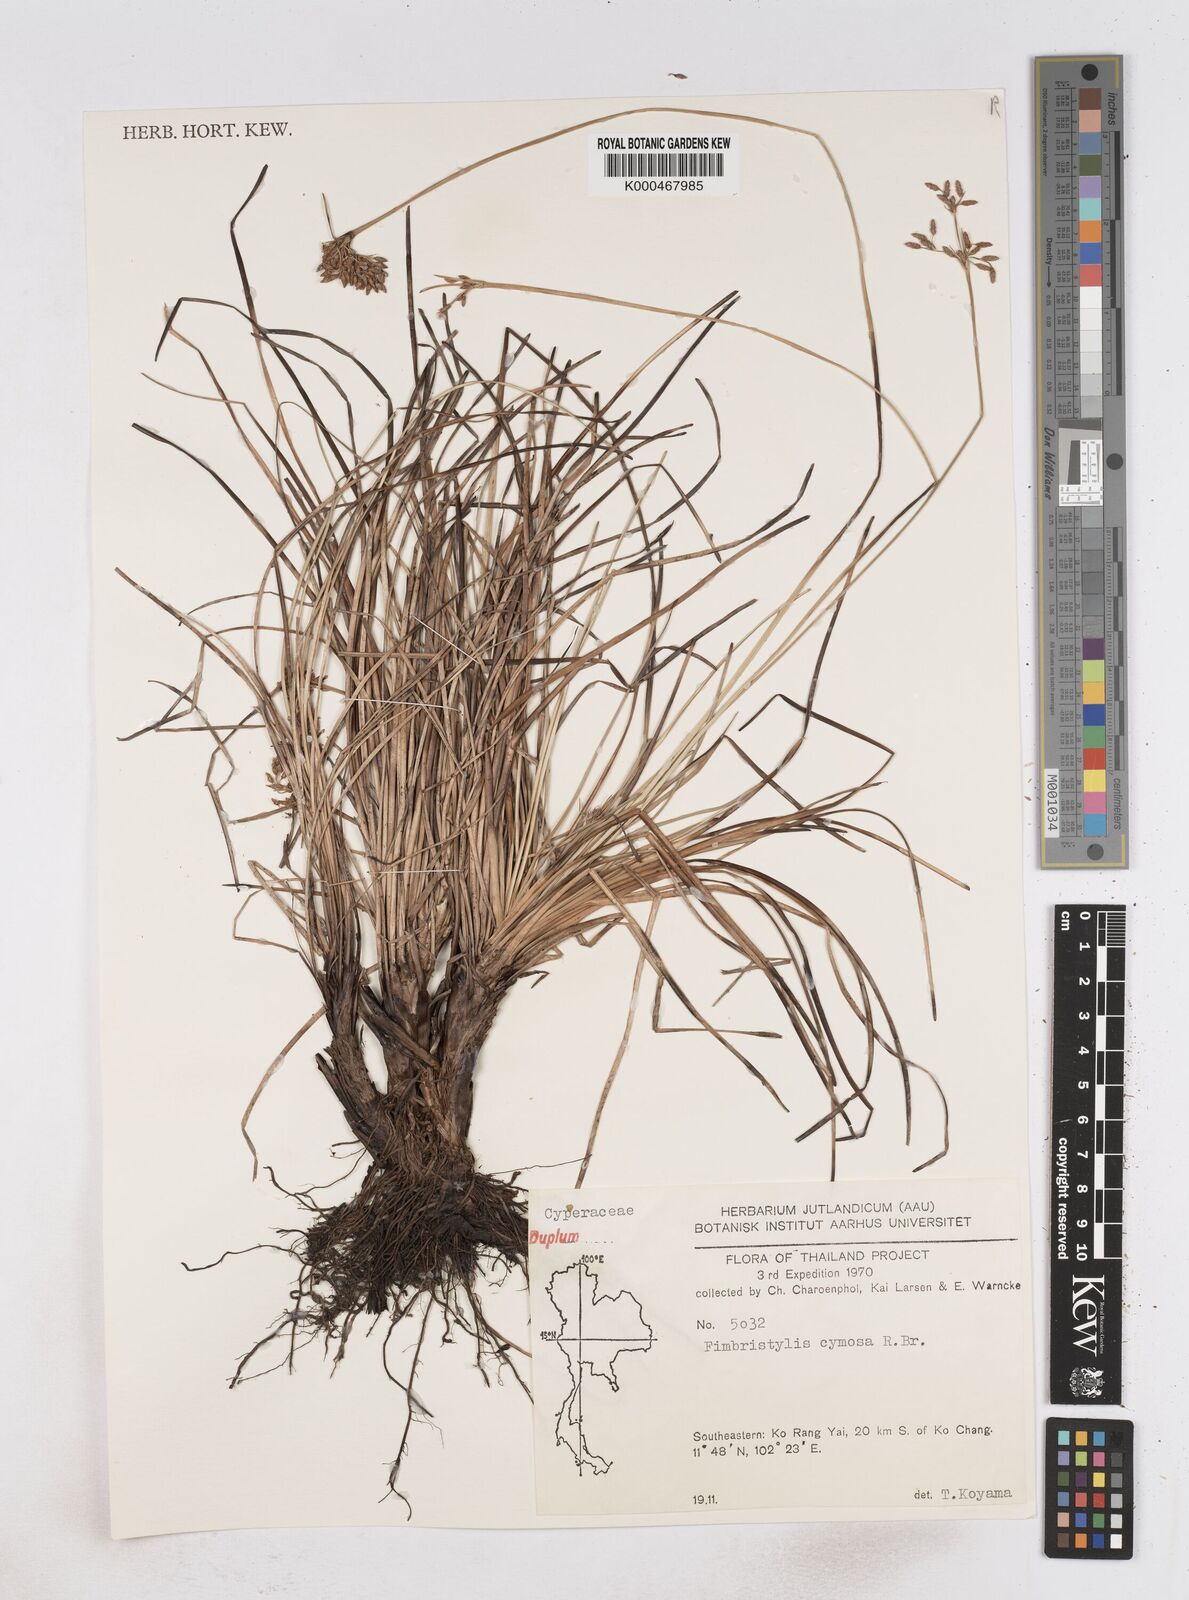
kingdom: Plantae
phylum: Tracheophyta
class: Liliopsida
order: Poales
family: Cyperaceae
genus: Fimbristylis
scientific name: Fimbristylis cymosa
